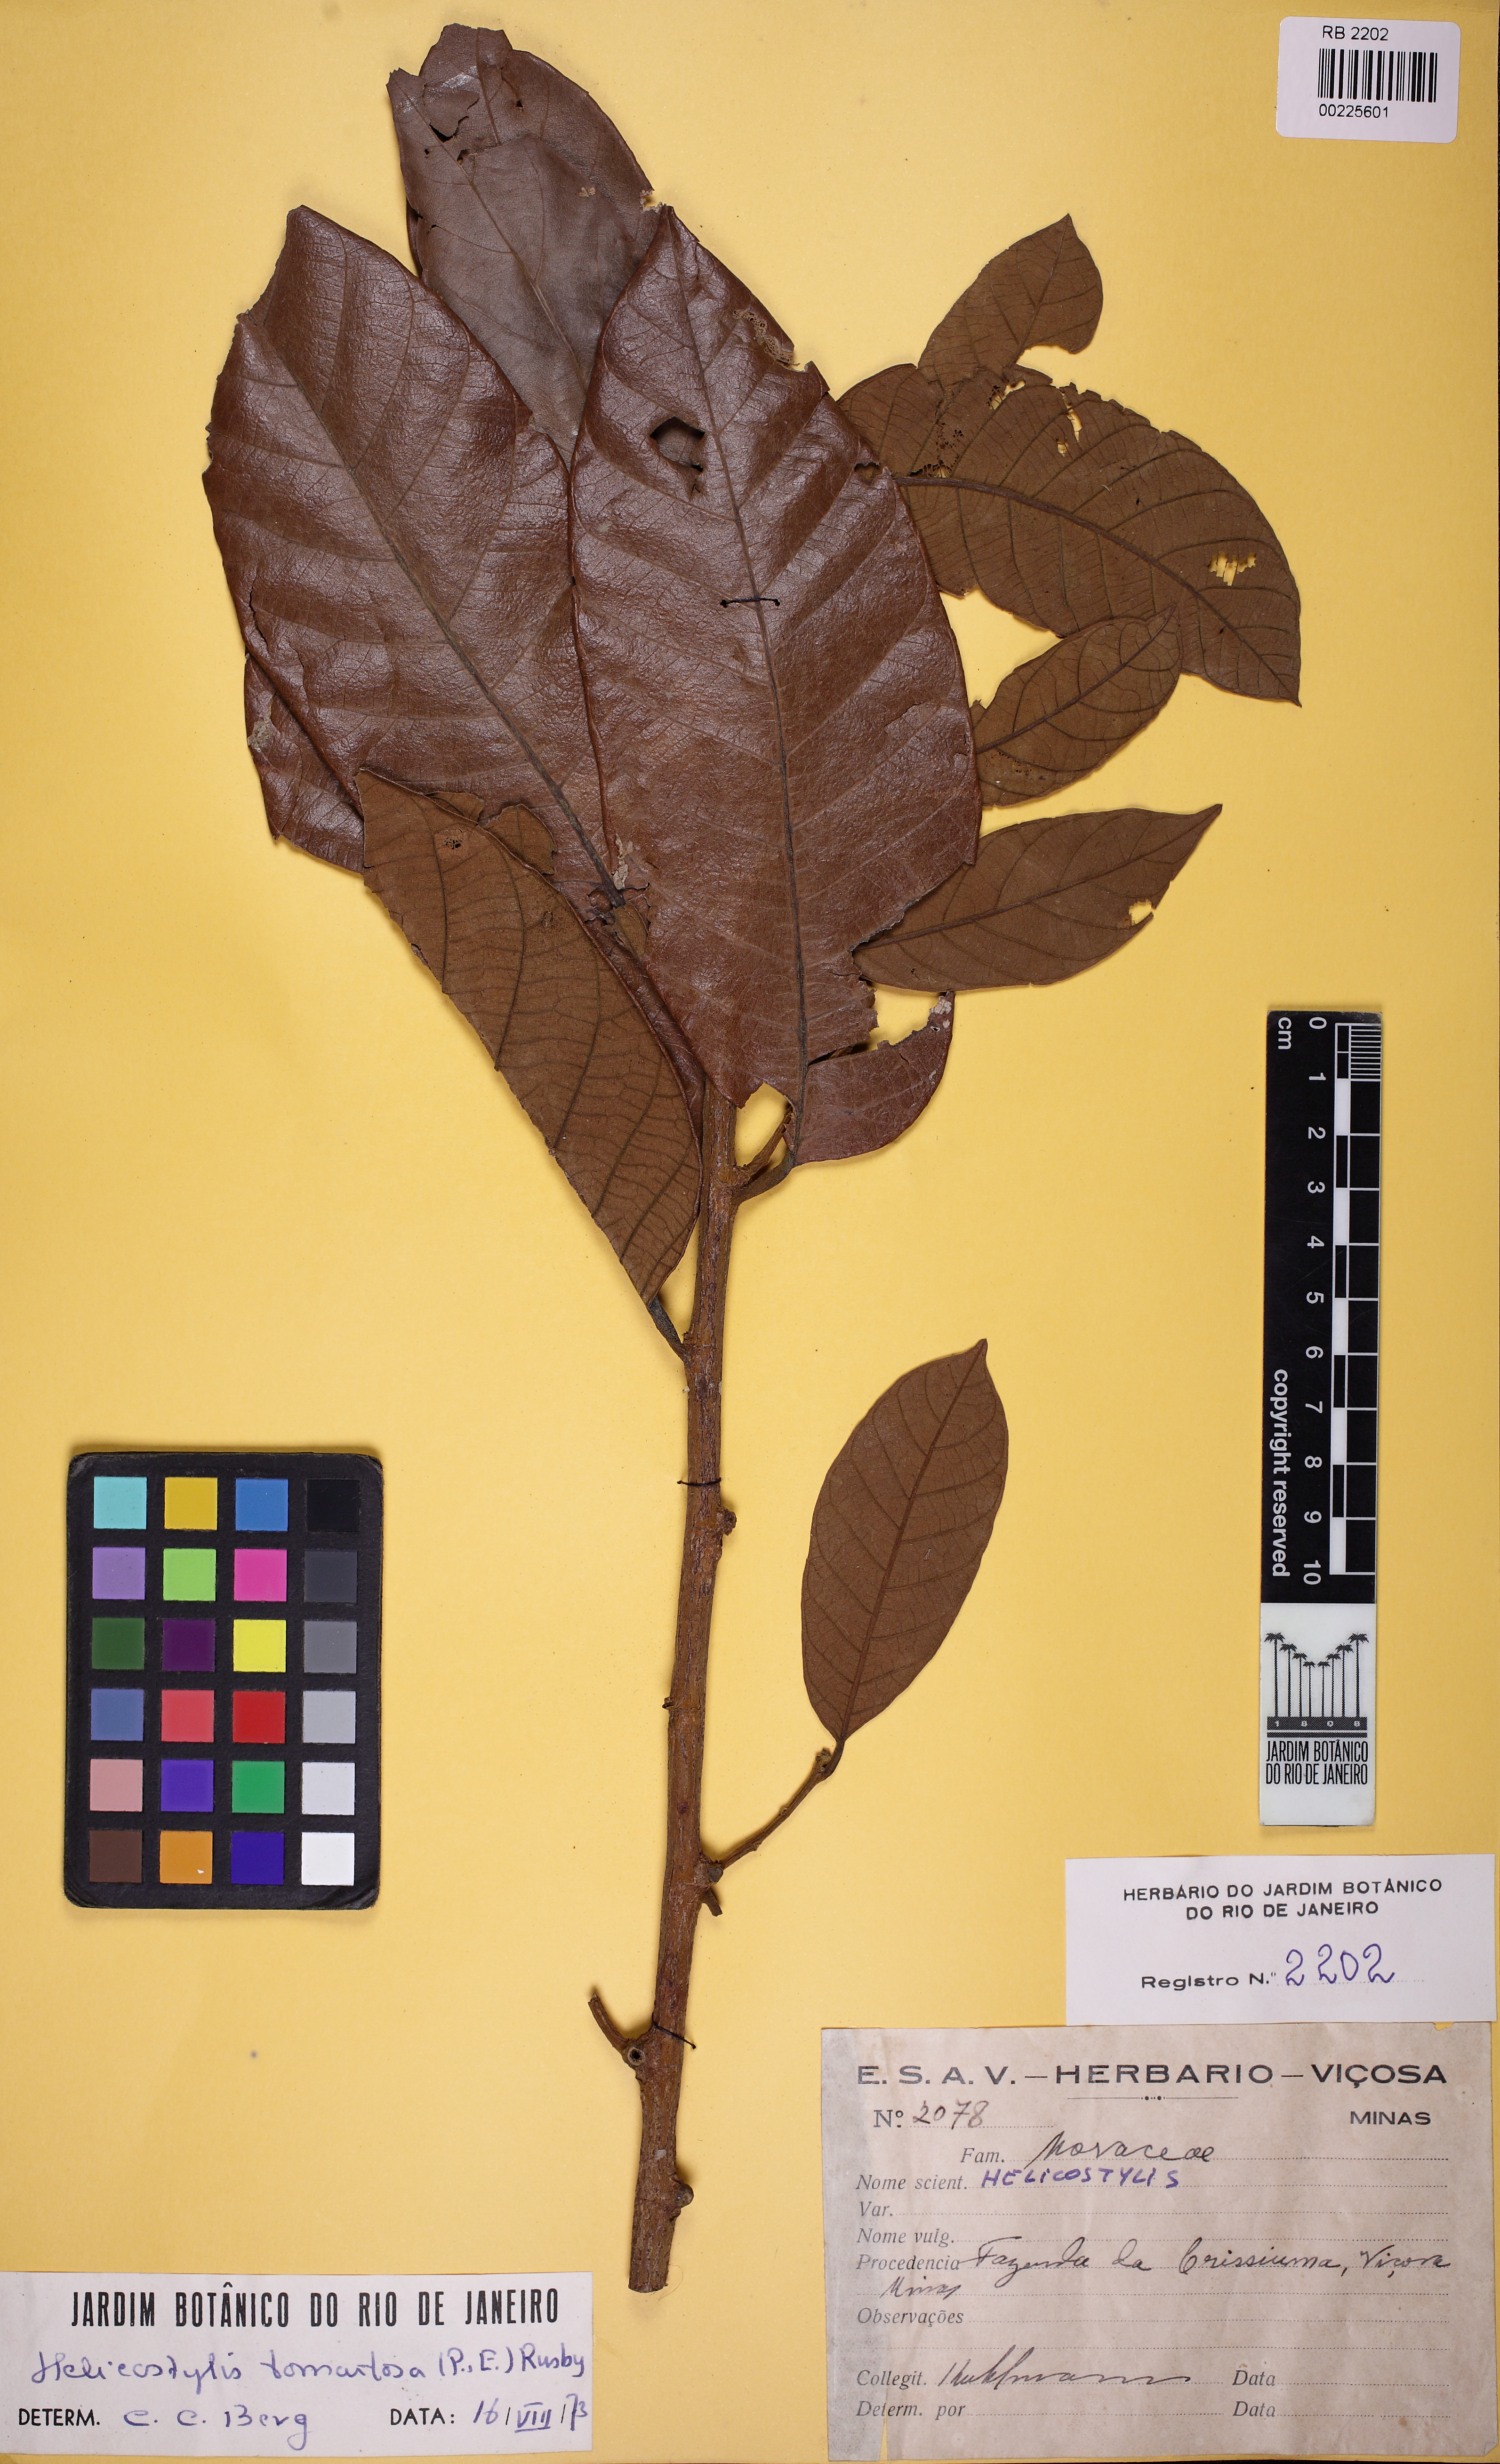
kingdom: Plantae
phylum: Tracheophyta
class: Magnoliopsida
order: Rosales
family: Moraceae
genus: Helicostylis
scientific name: Helicostylis tomentosa
